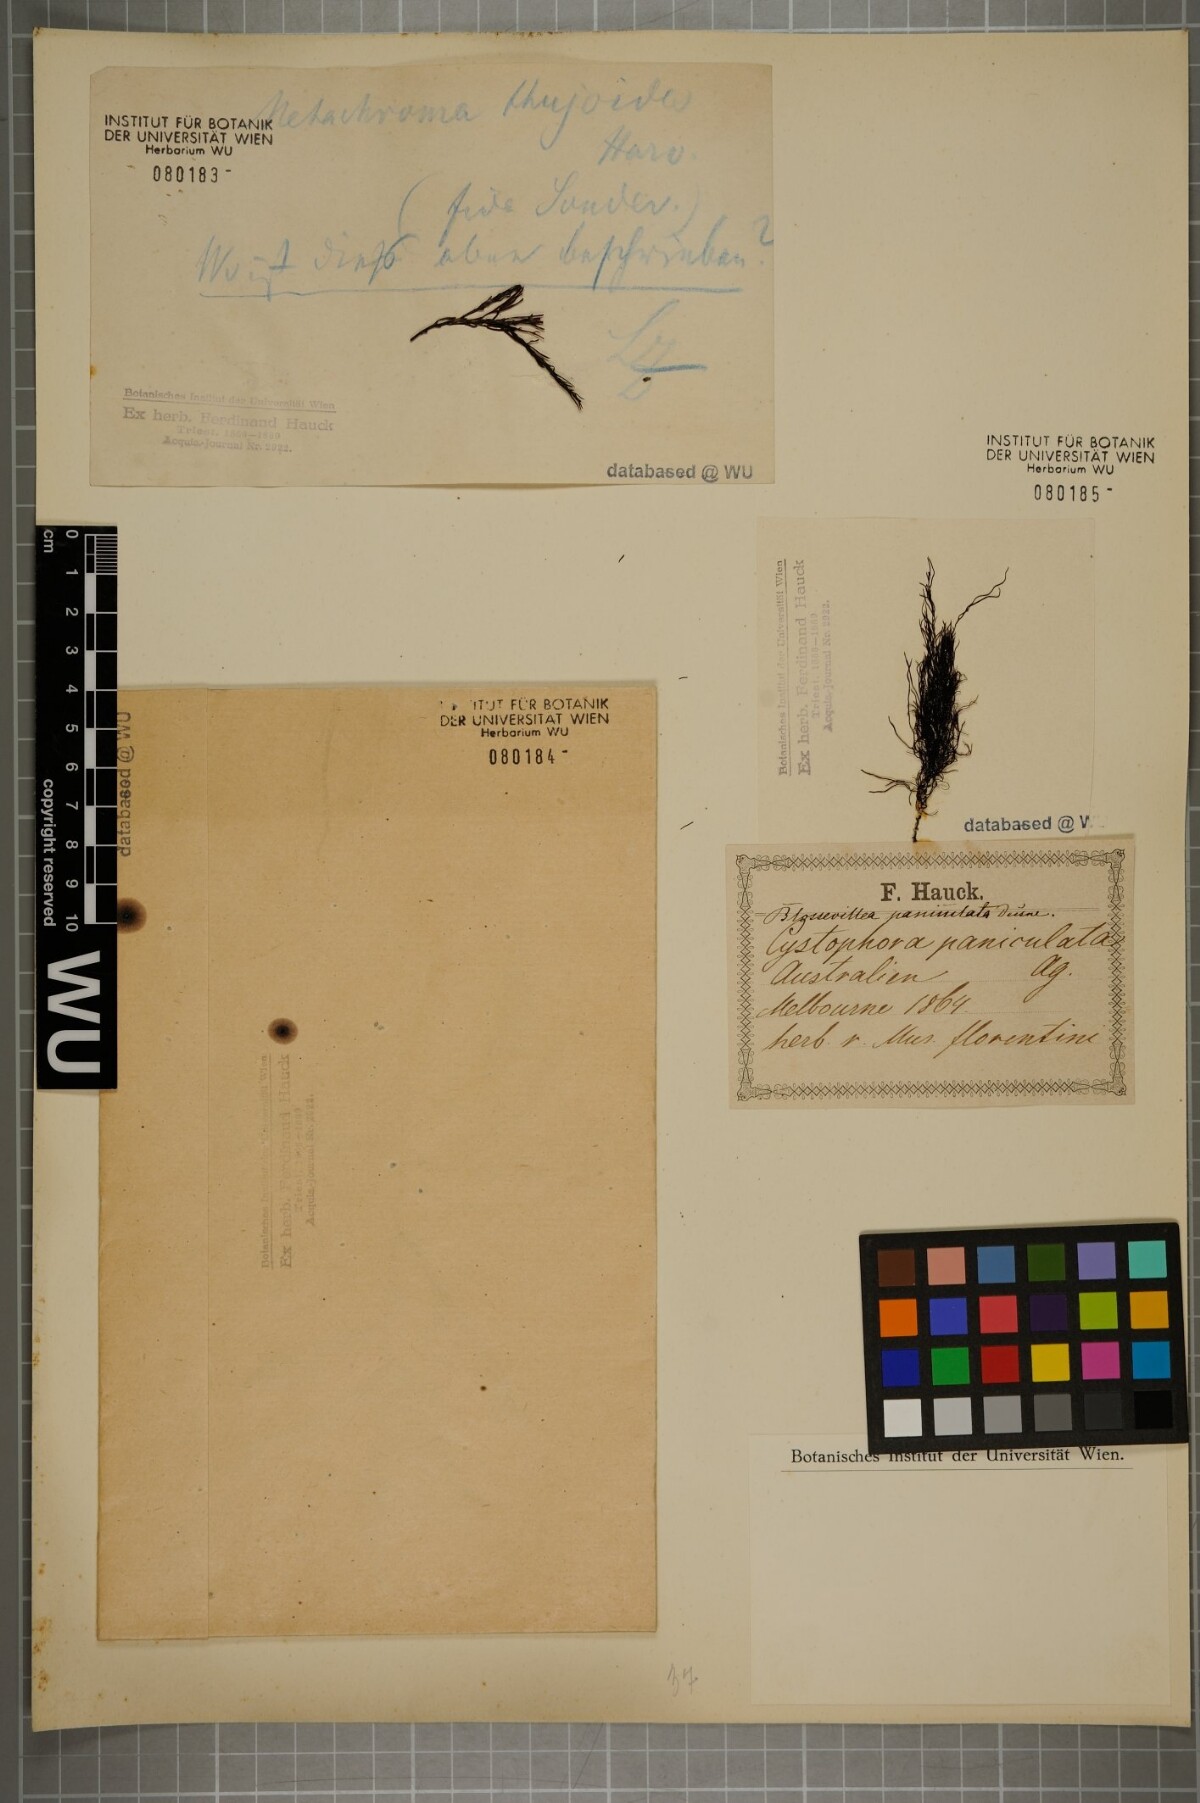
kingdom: Chromista
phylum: Ochrophyta
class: Phaeophyceae
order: Fucales
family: Sargassaceae
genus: Cystoseira
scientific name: Cystoseira
